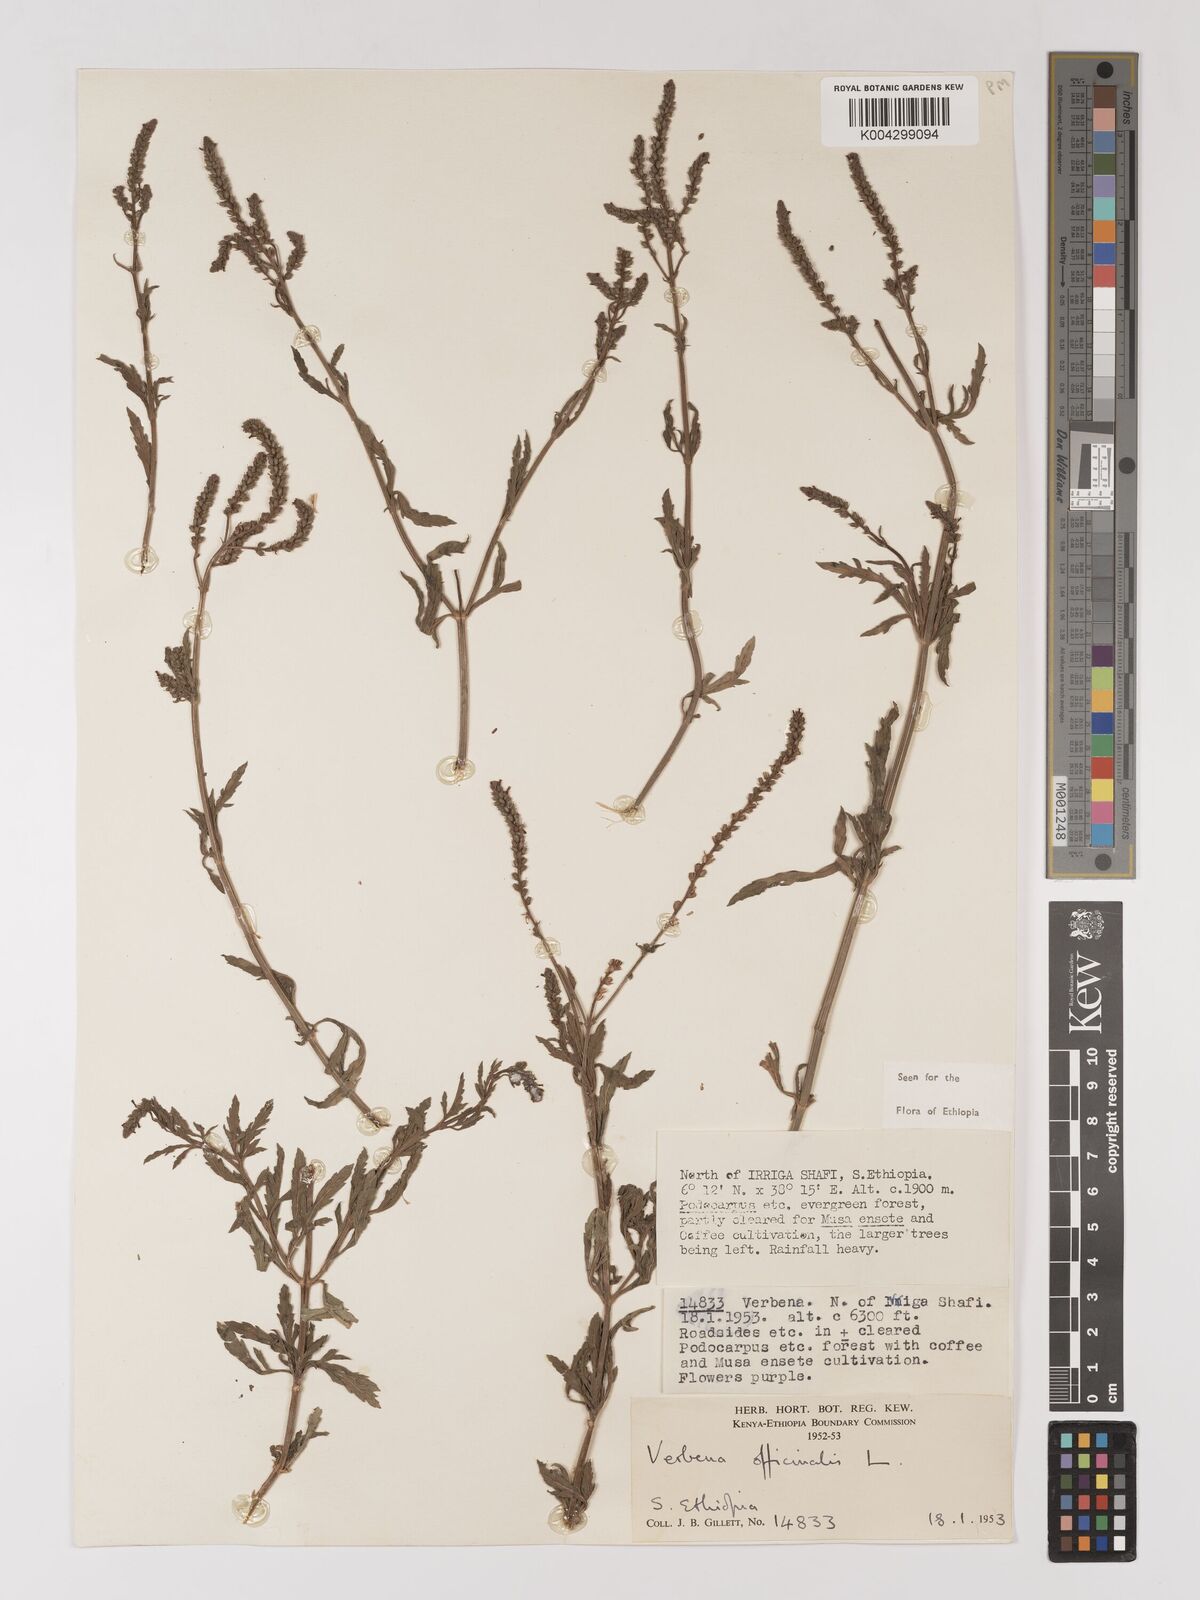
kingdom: Plantae
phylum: Tracheophyta
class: Magnoliopsida
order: Lamiales
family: Verbenaceae
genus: Verbena
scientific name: Verbena officinalis
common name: Vervain
